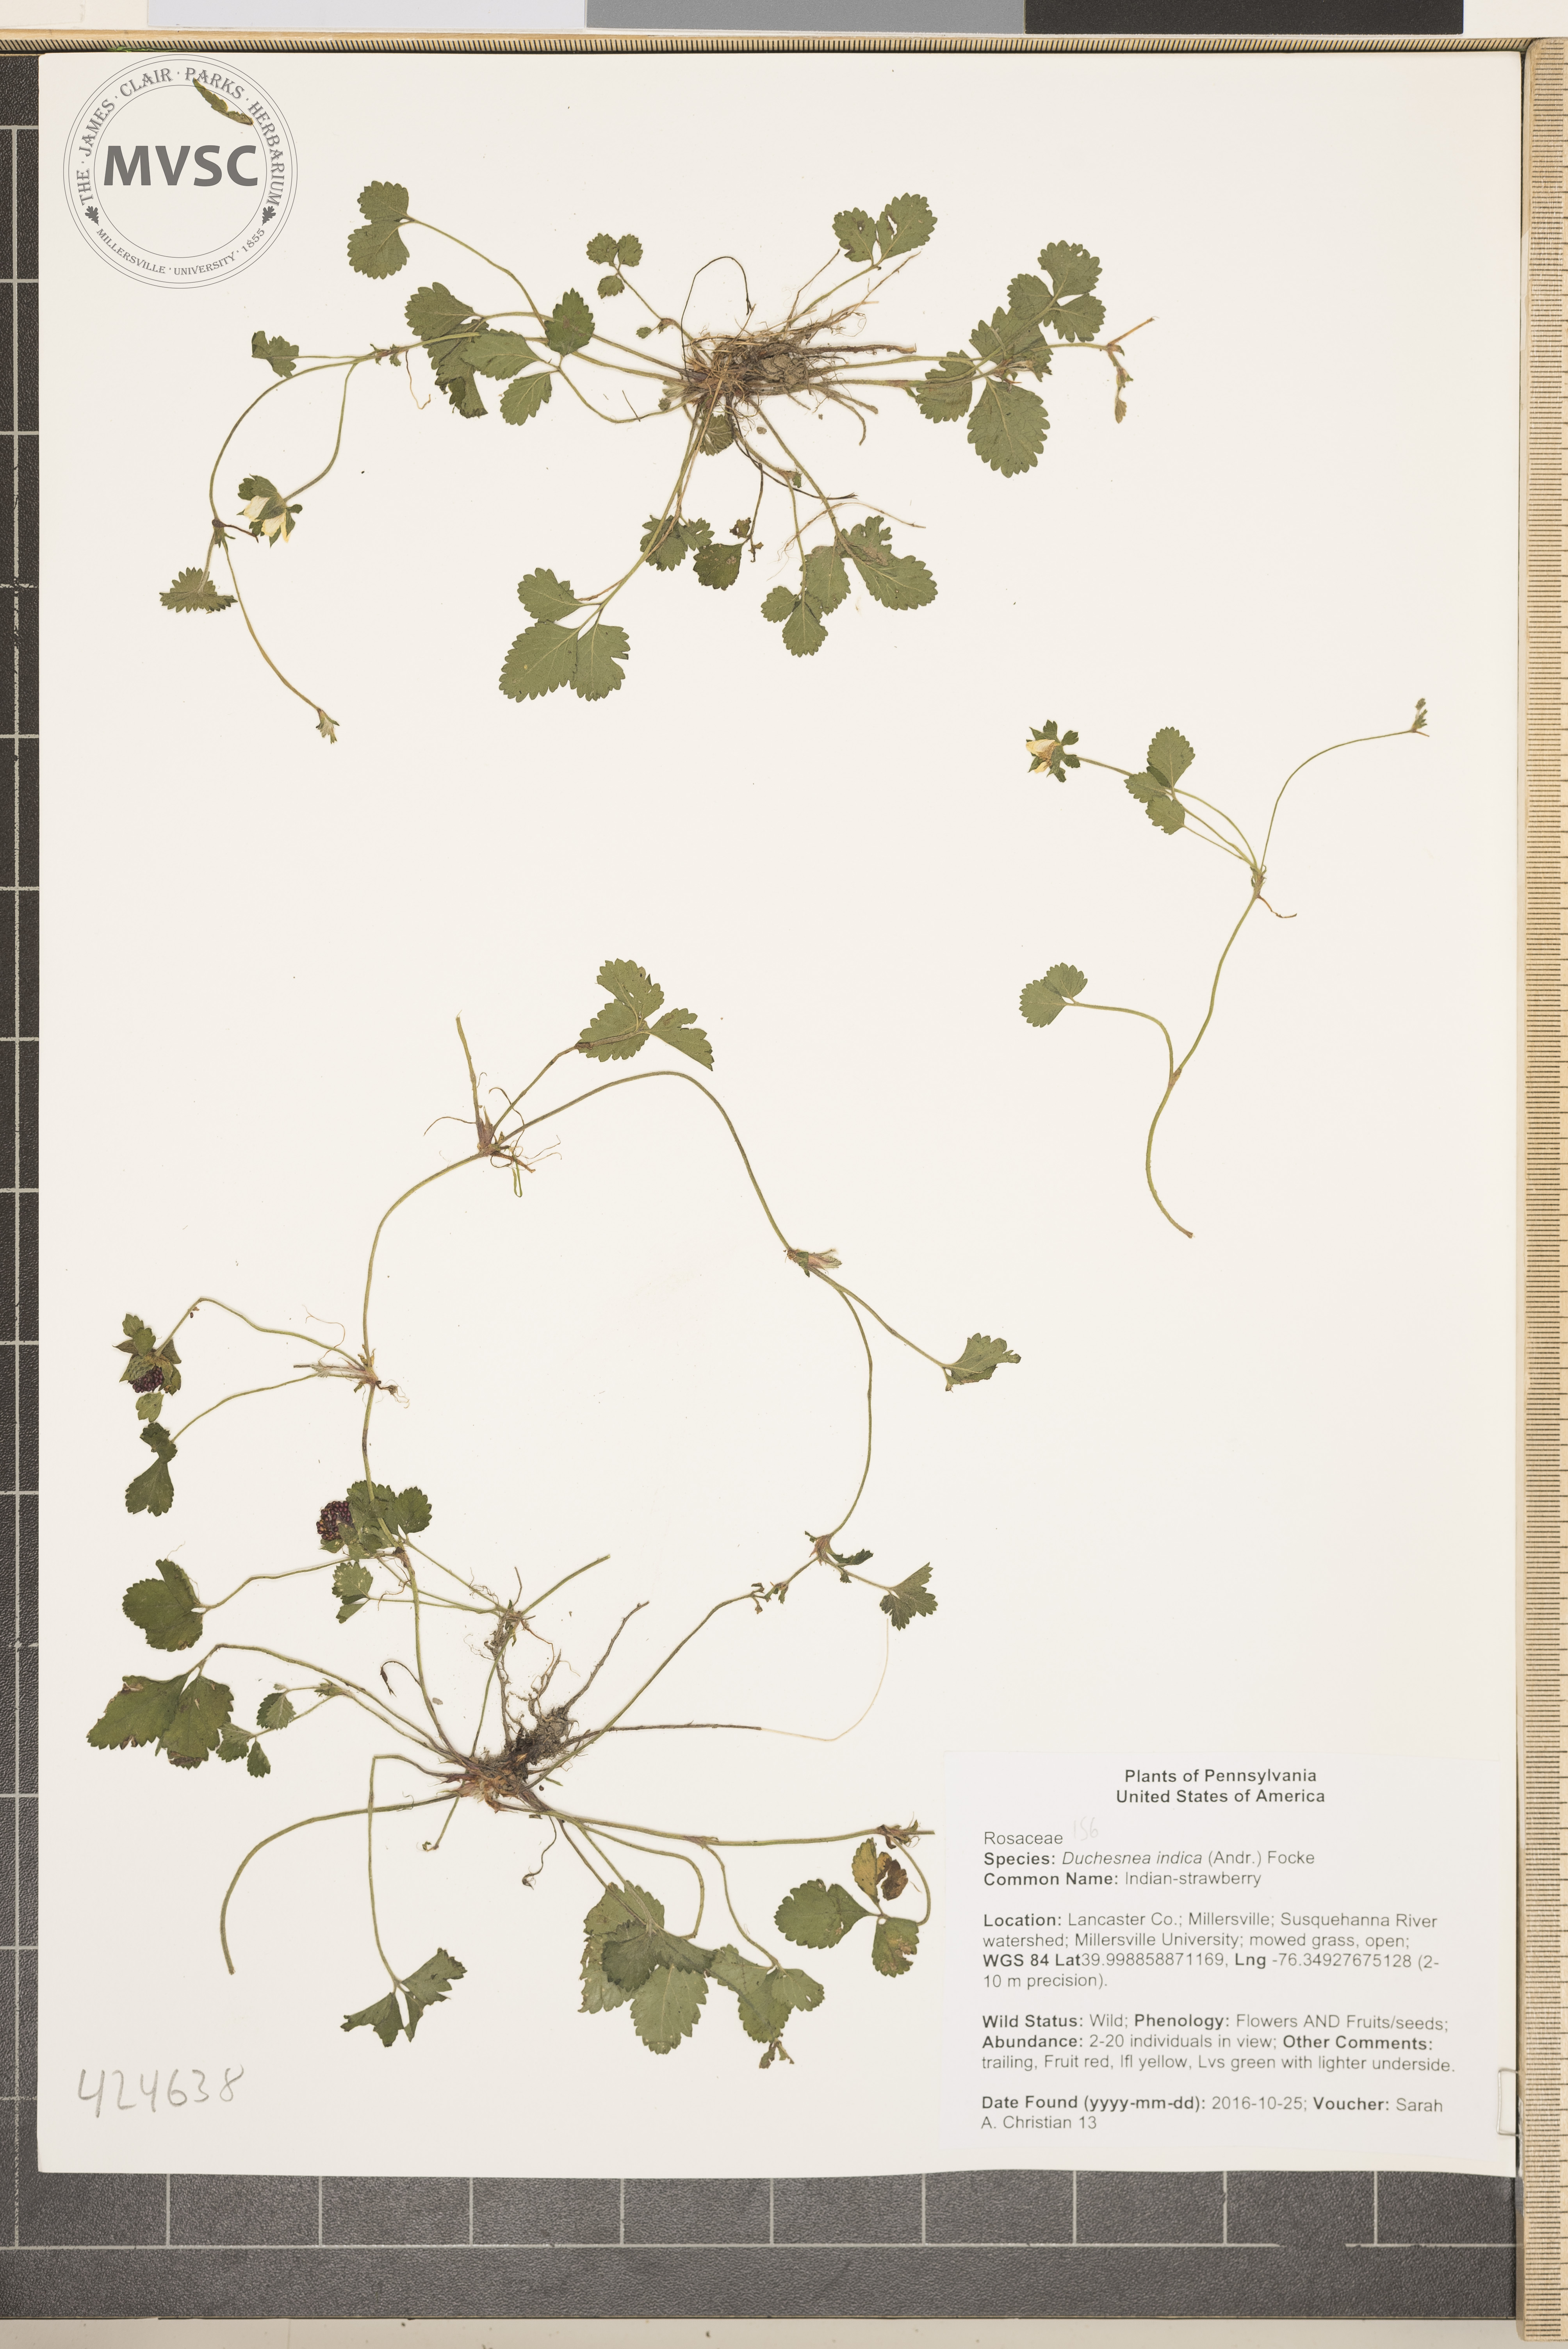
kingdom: Plantae
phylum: Tracheophyta
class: Magnoliopsida
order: Rosales
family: Rosaceae
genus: Potentilla
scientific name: Potentilla indica
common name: Indian-strawberry
